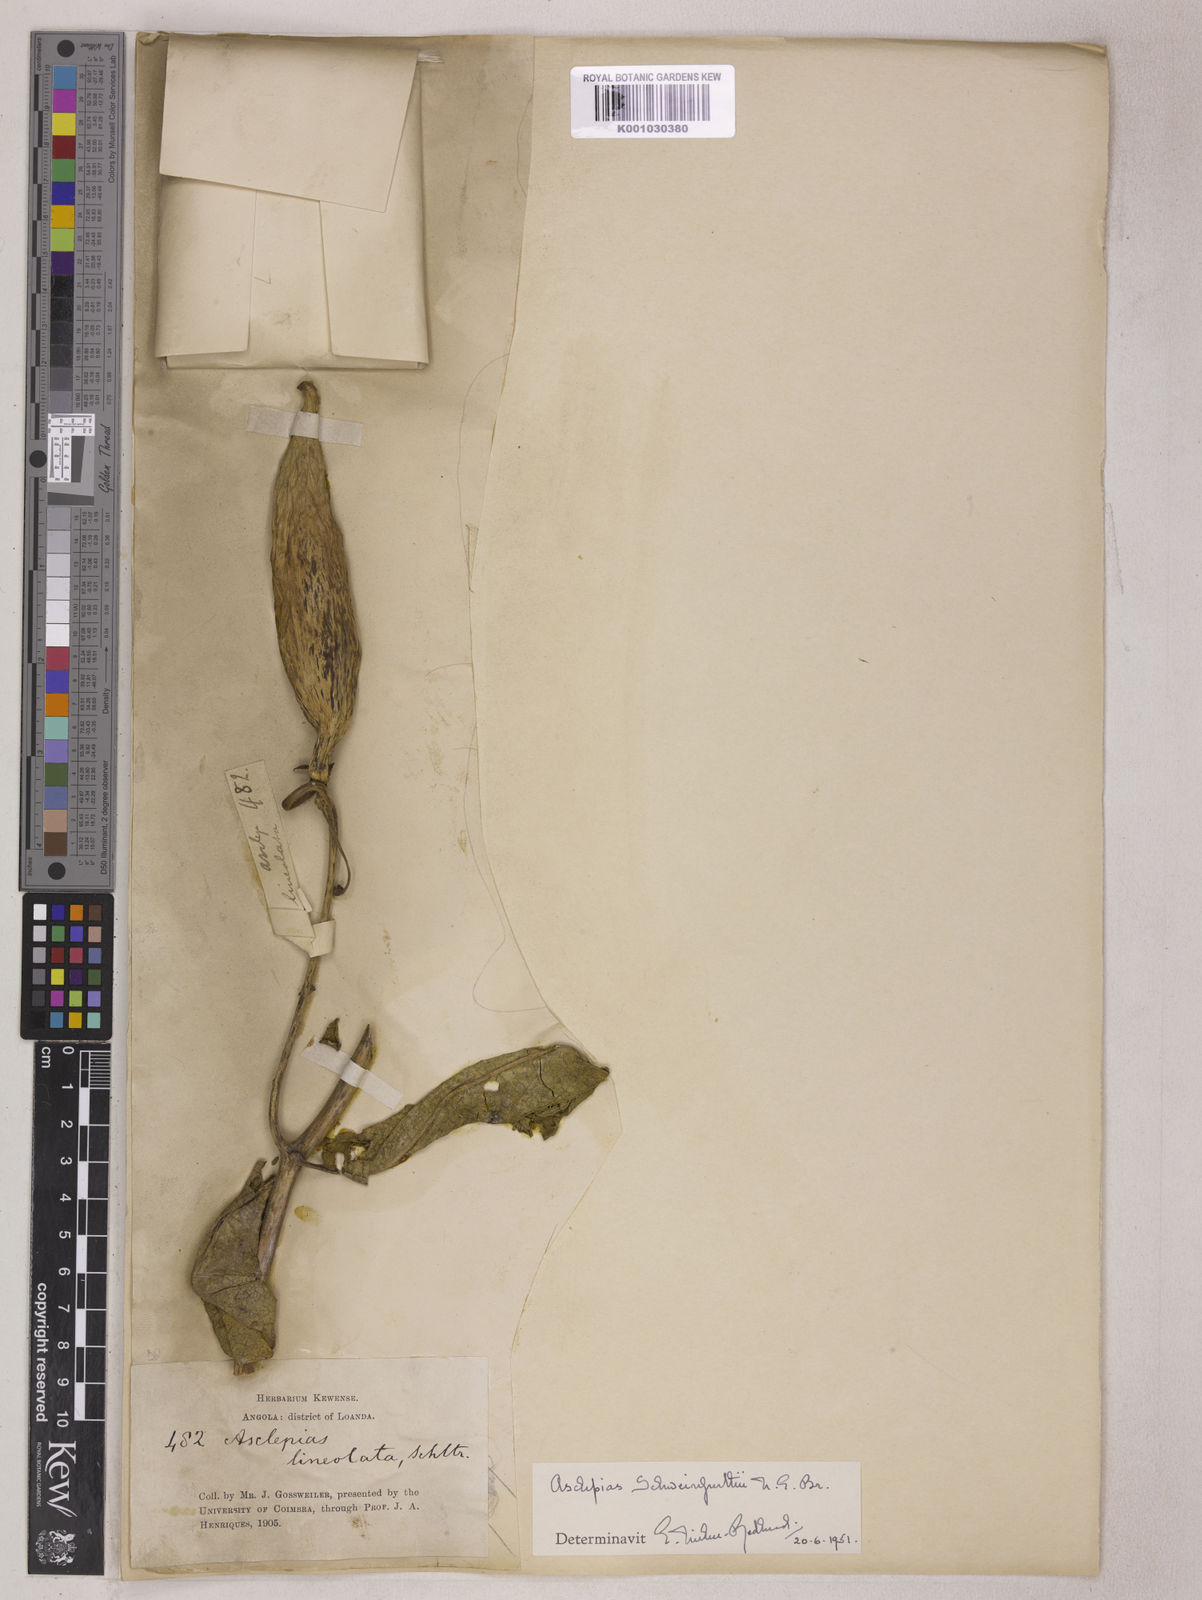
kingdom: Plantae
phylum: Tracheophyta
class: Magnoliopsida
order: Gentianales
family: Apocynaceae
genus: Pachycarpus
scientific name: Pachycarpus lineolatus
